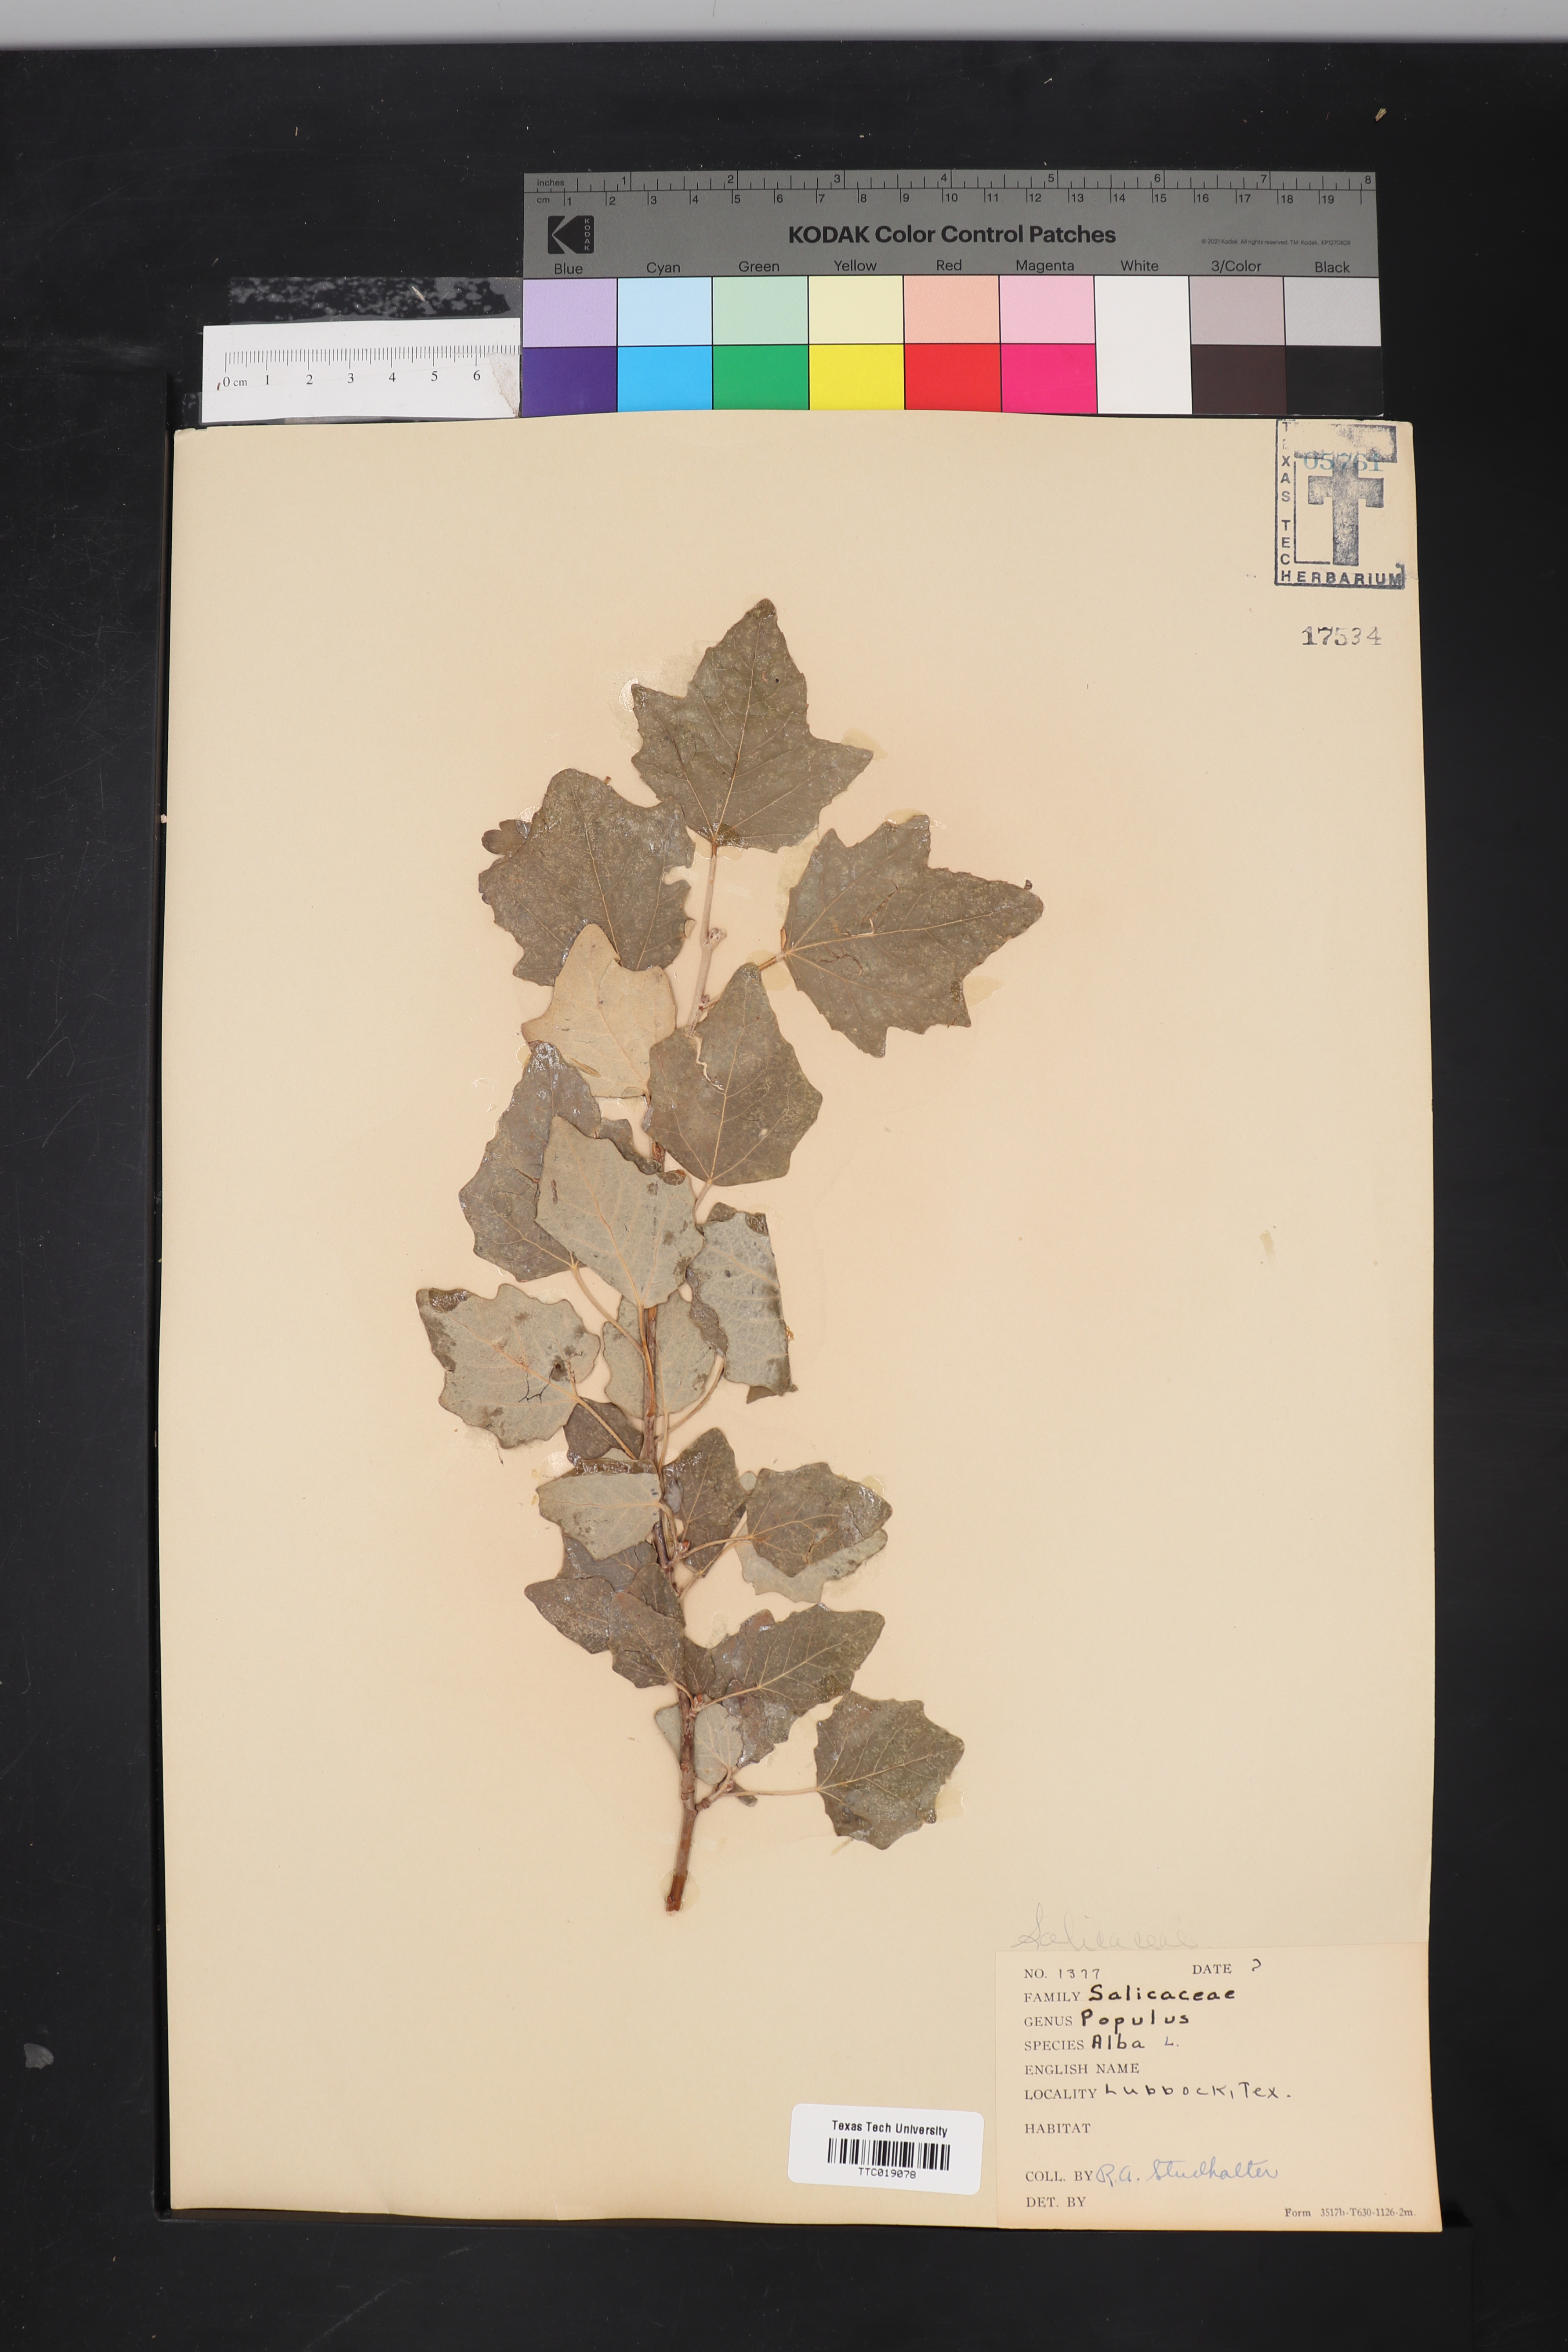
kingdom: Plantae
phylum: Tracheophyta
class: Magnoliopsida
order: Malpighiales
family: Salicaceae
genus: Populus
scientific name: Populus alba
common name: White poplar
